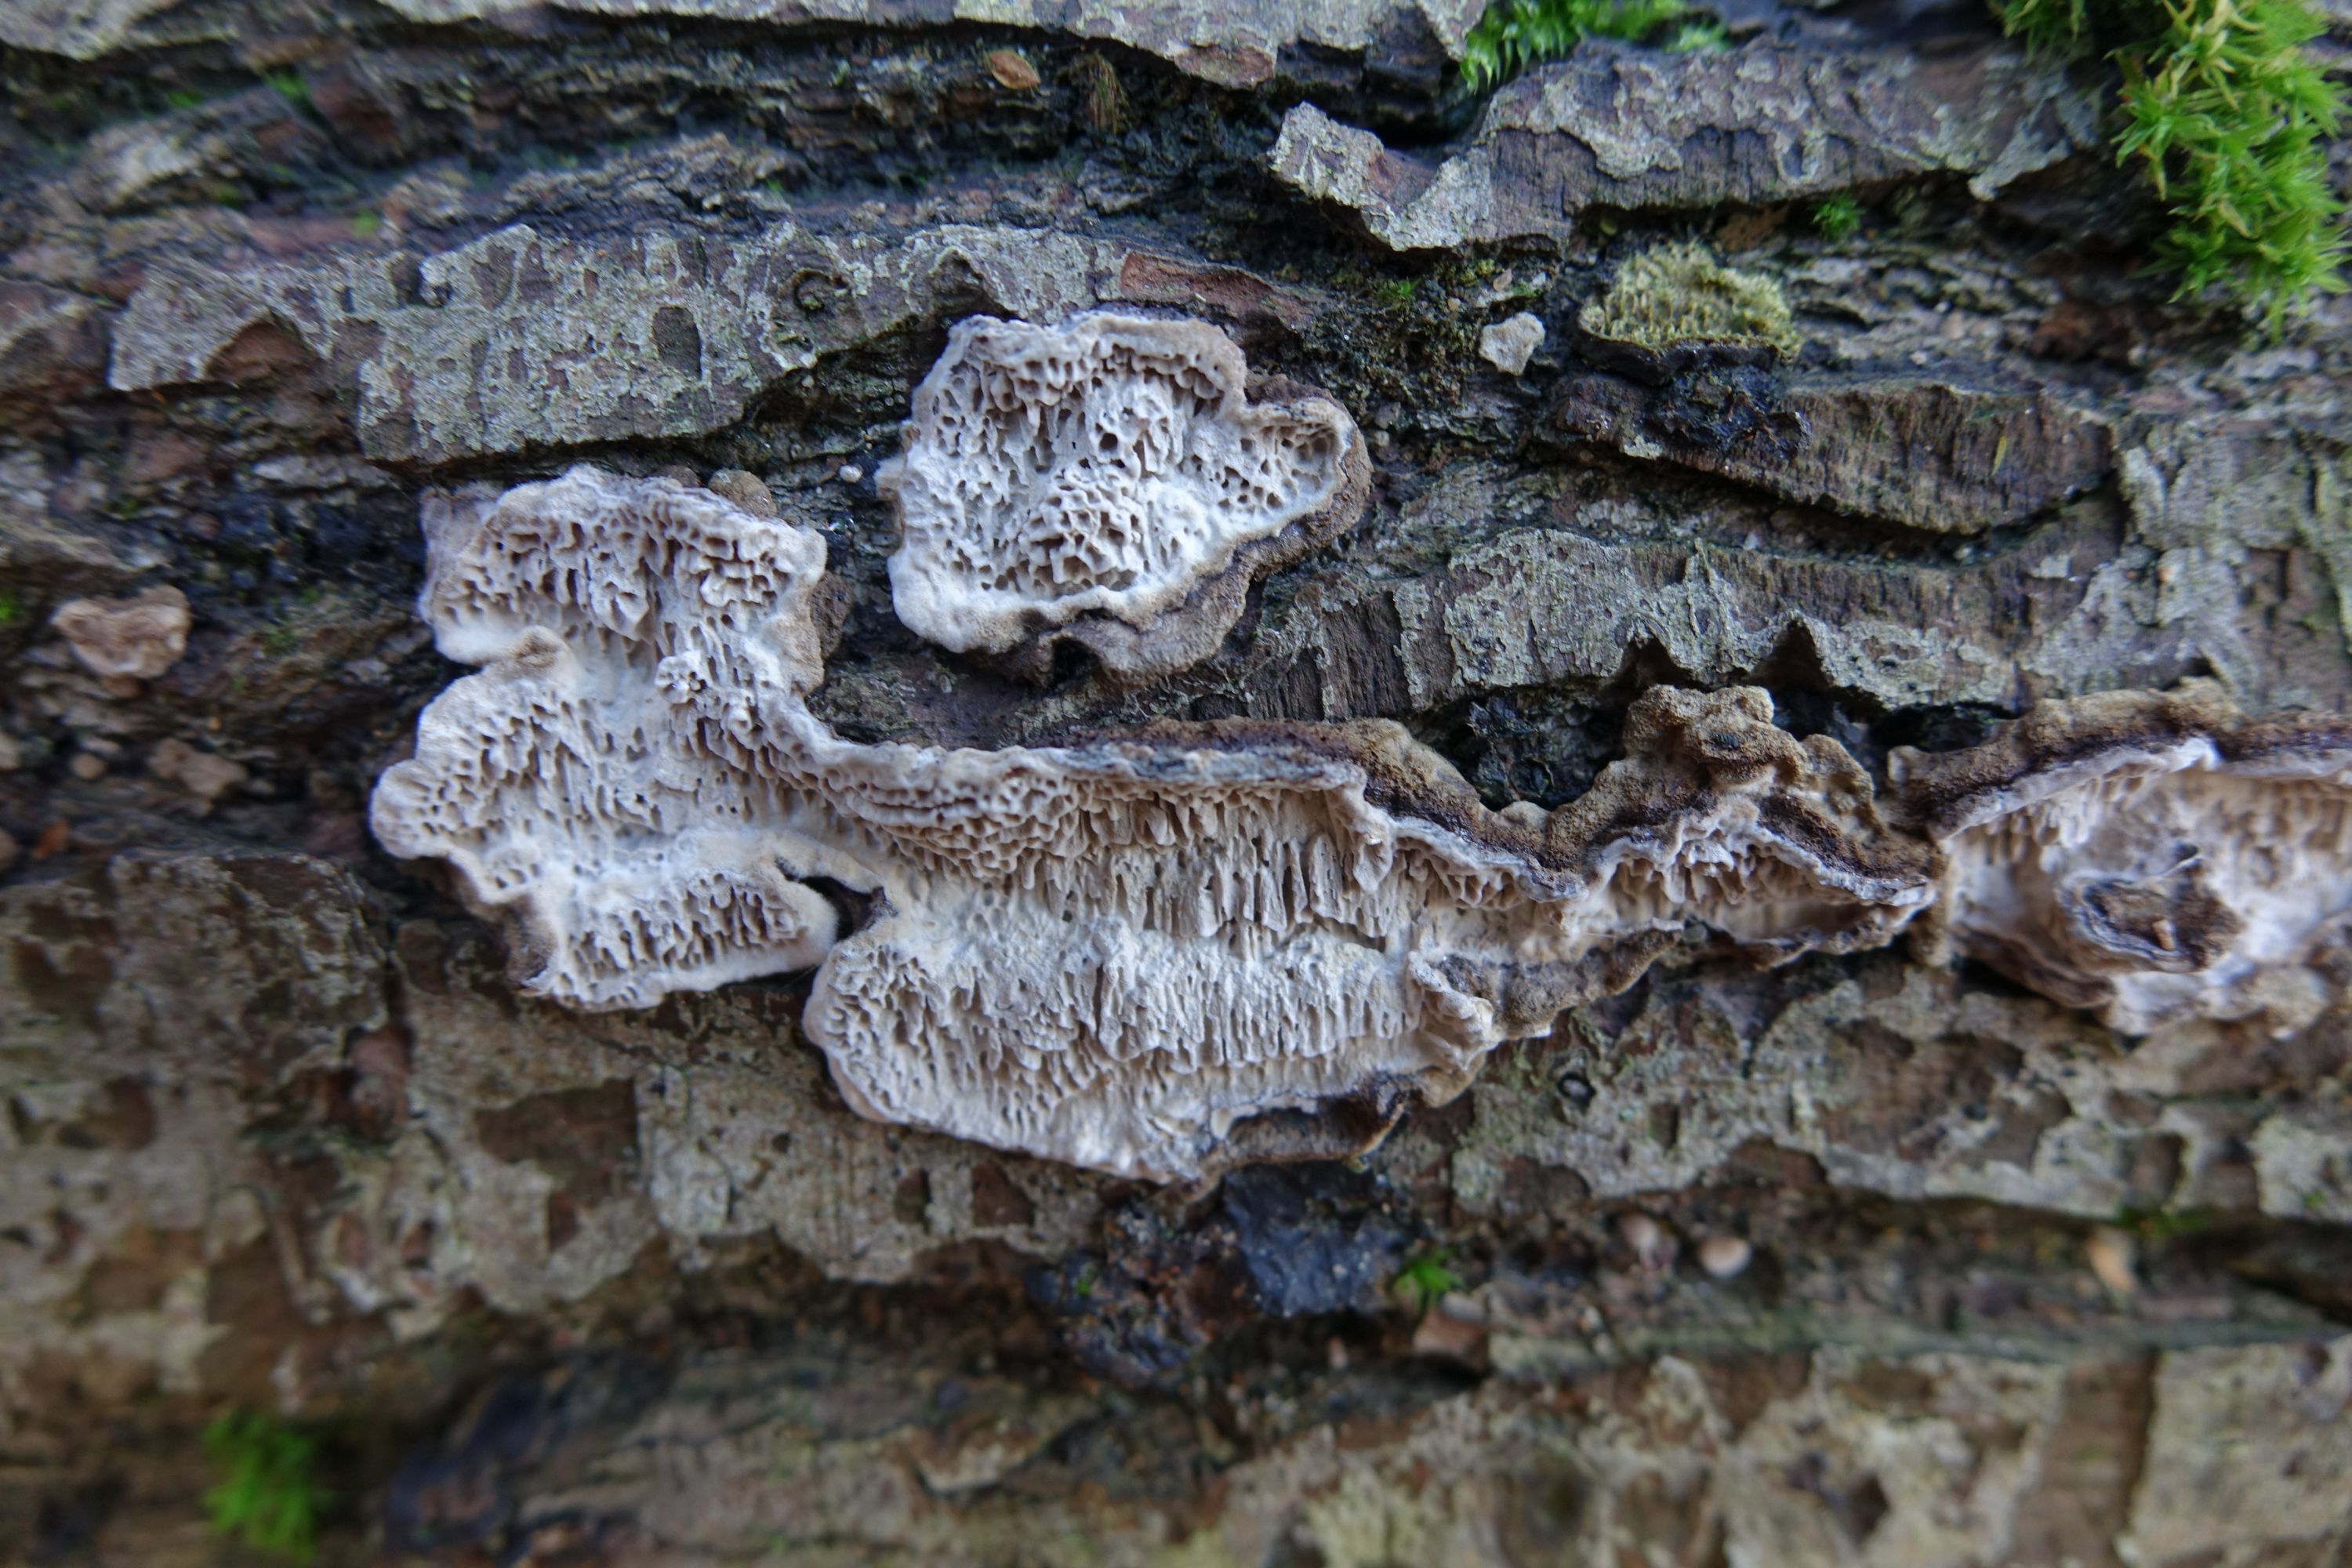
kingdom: Fungi
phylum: Basidiomycota
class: Agaricomycetes
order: Polyporales
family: Polyporaceae
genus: Podofomes
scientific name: Podofomes mollis
